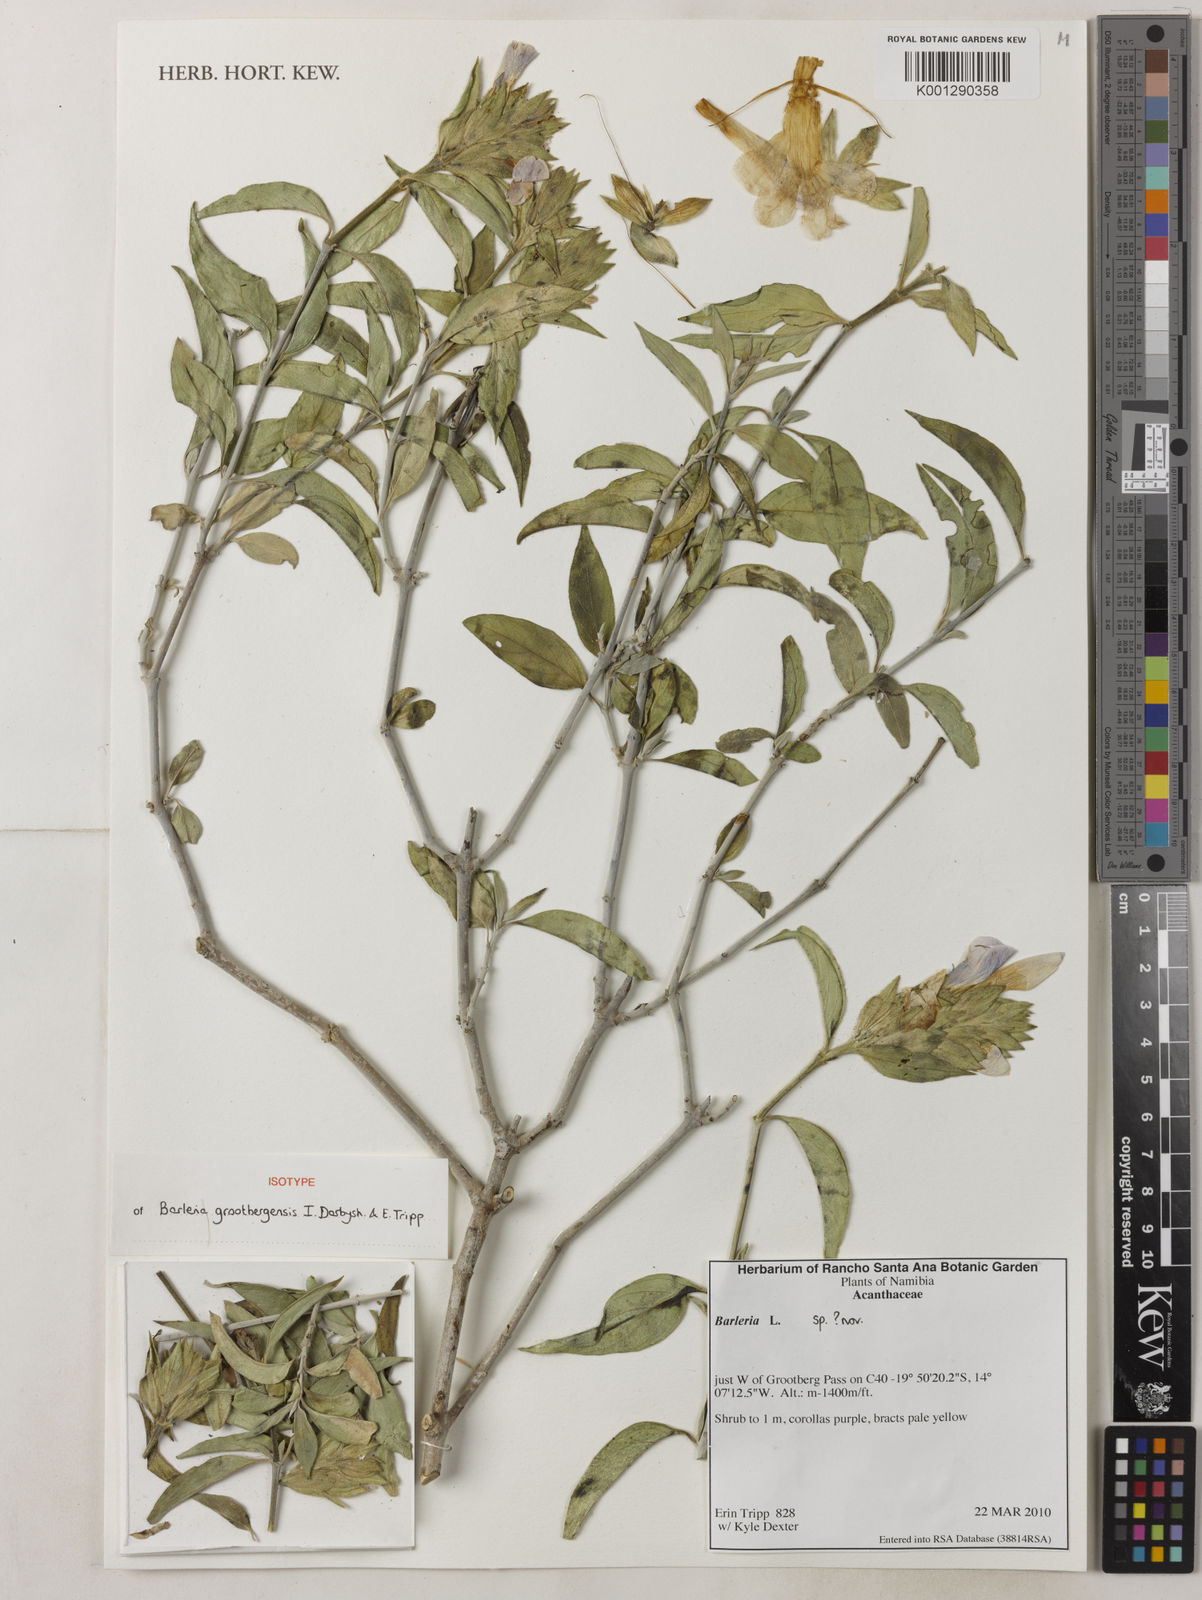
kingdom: Plantae
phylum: Tracheophyta
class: Magnoliopsida
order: Lamiales
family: Acanthaceae
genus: Barleria
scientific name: Barleria grootbergensis
